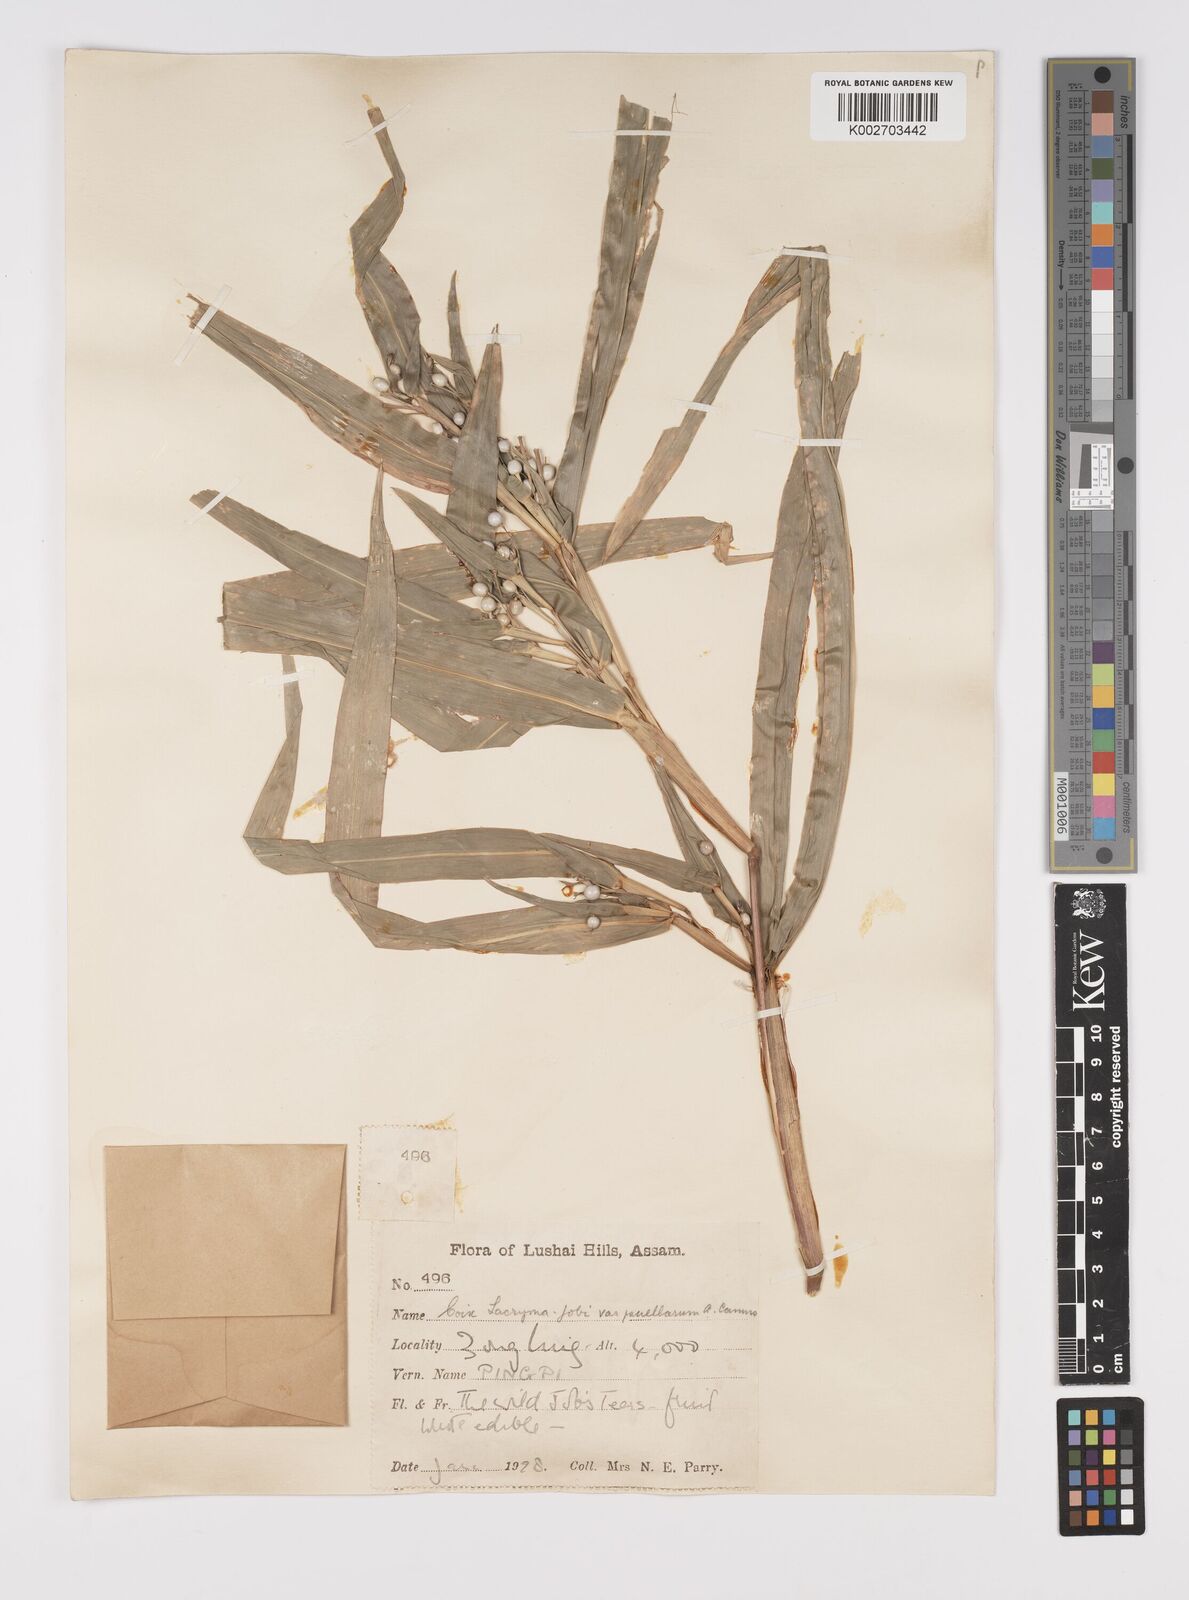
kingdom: Plantae
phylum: Tracheophyta
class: Liliopsida
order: Poales
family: Poaceae
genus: Coix
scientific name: Coix lacryma-jobi
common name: Job's tears
